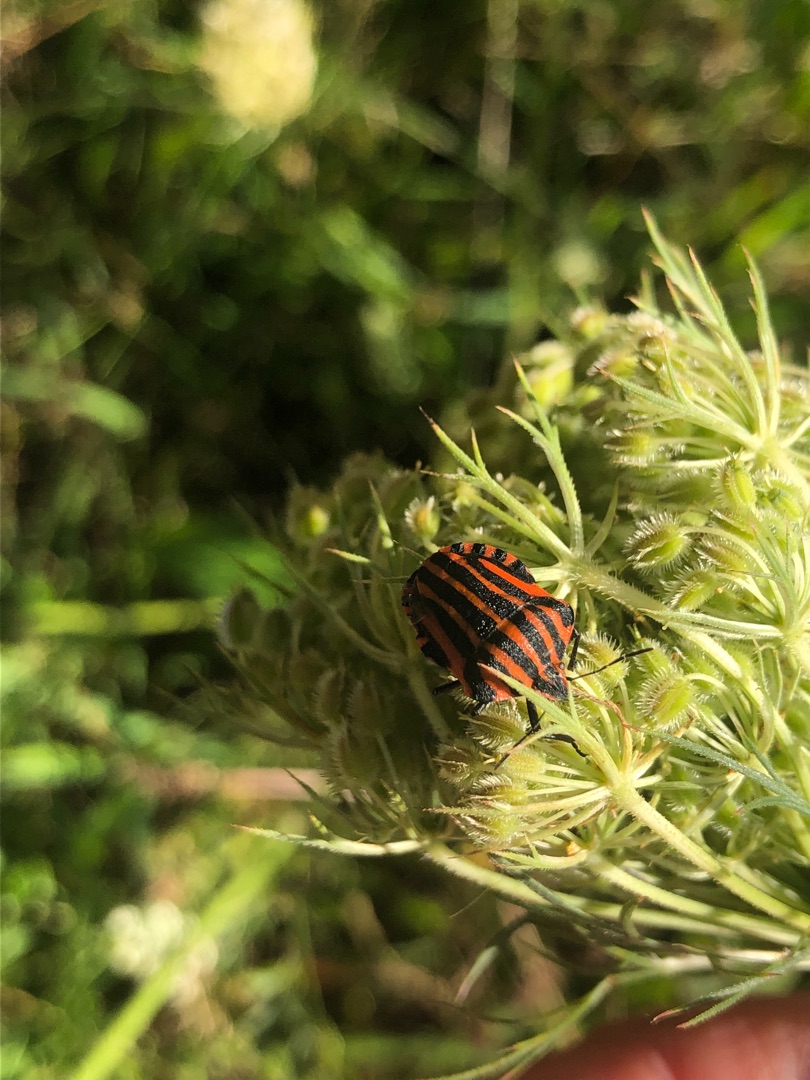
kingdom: Animalia
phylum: Arthropoda
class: Insecta
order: Hemiptera
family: Pentatomidae
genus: Graphosoma
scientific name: Graphosoma italicum
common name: Stribetæge
